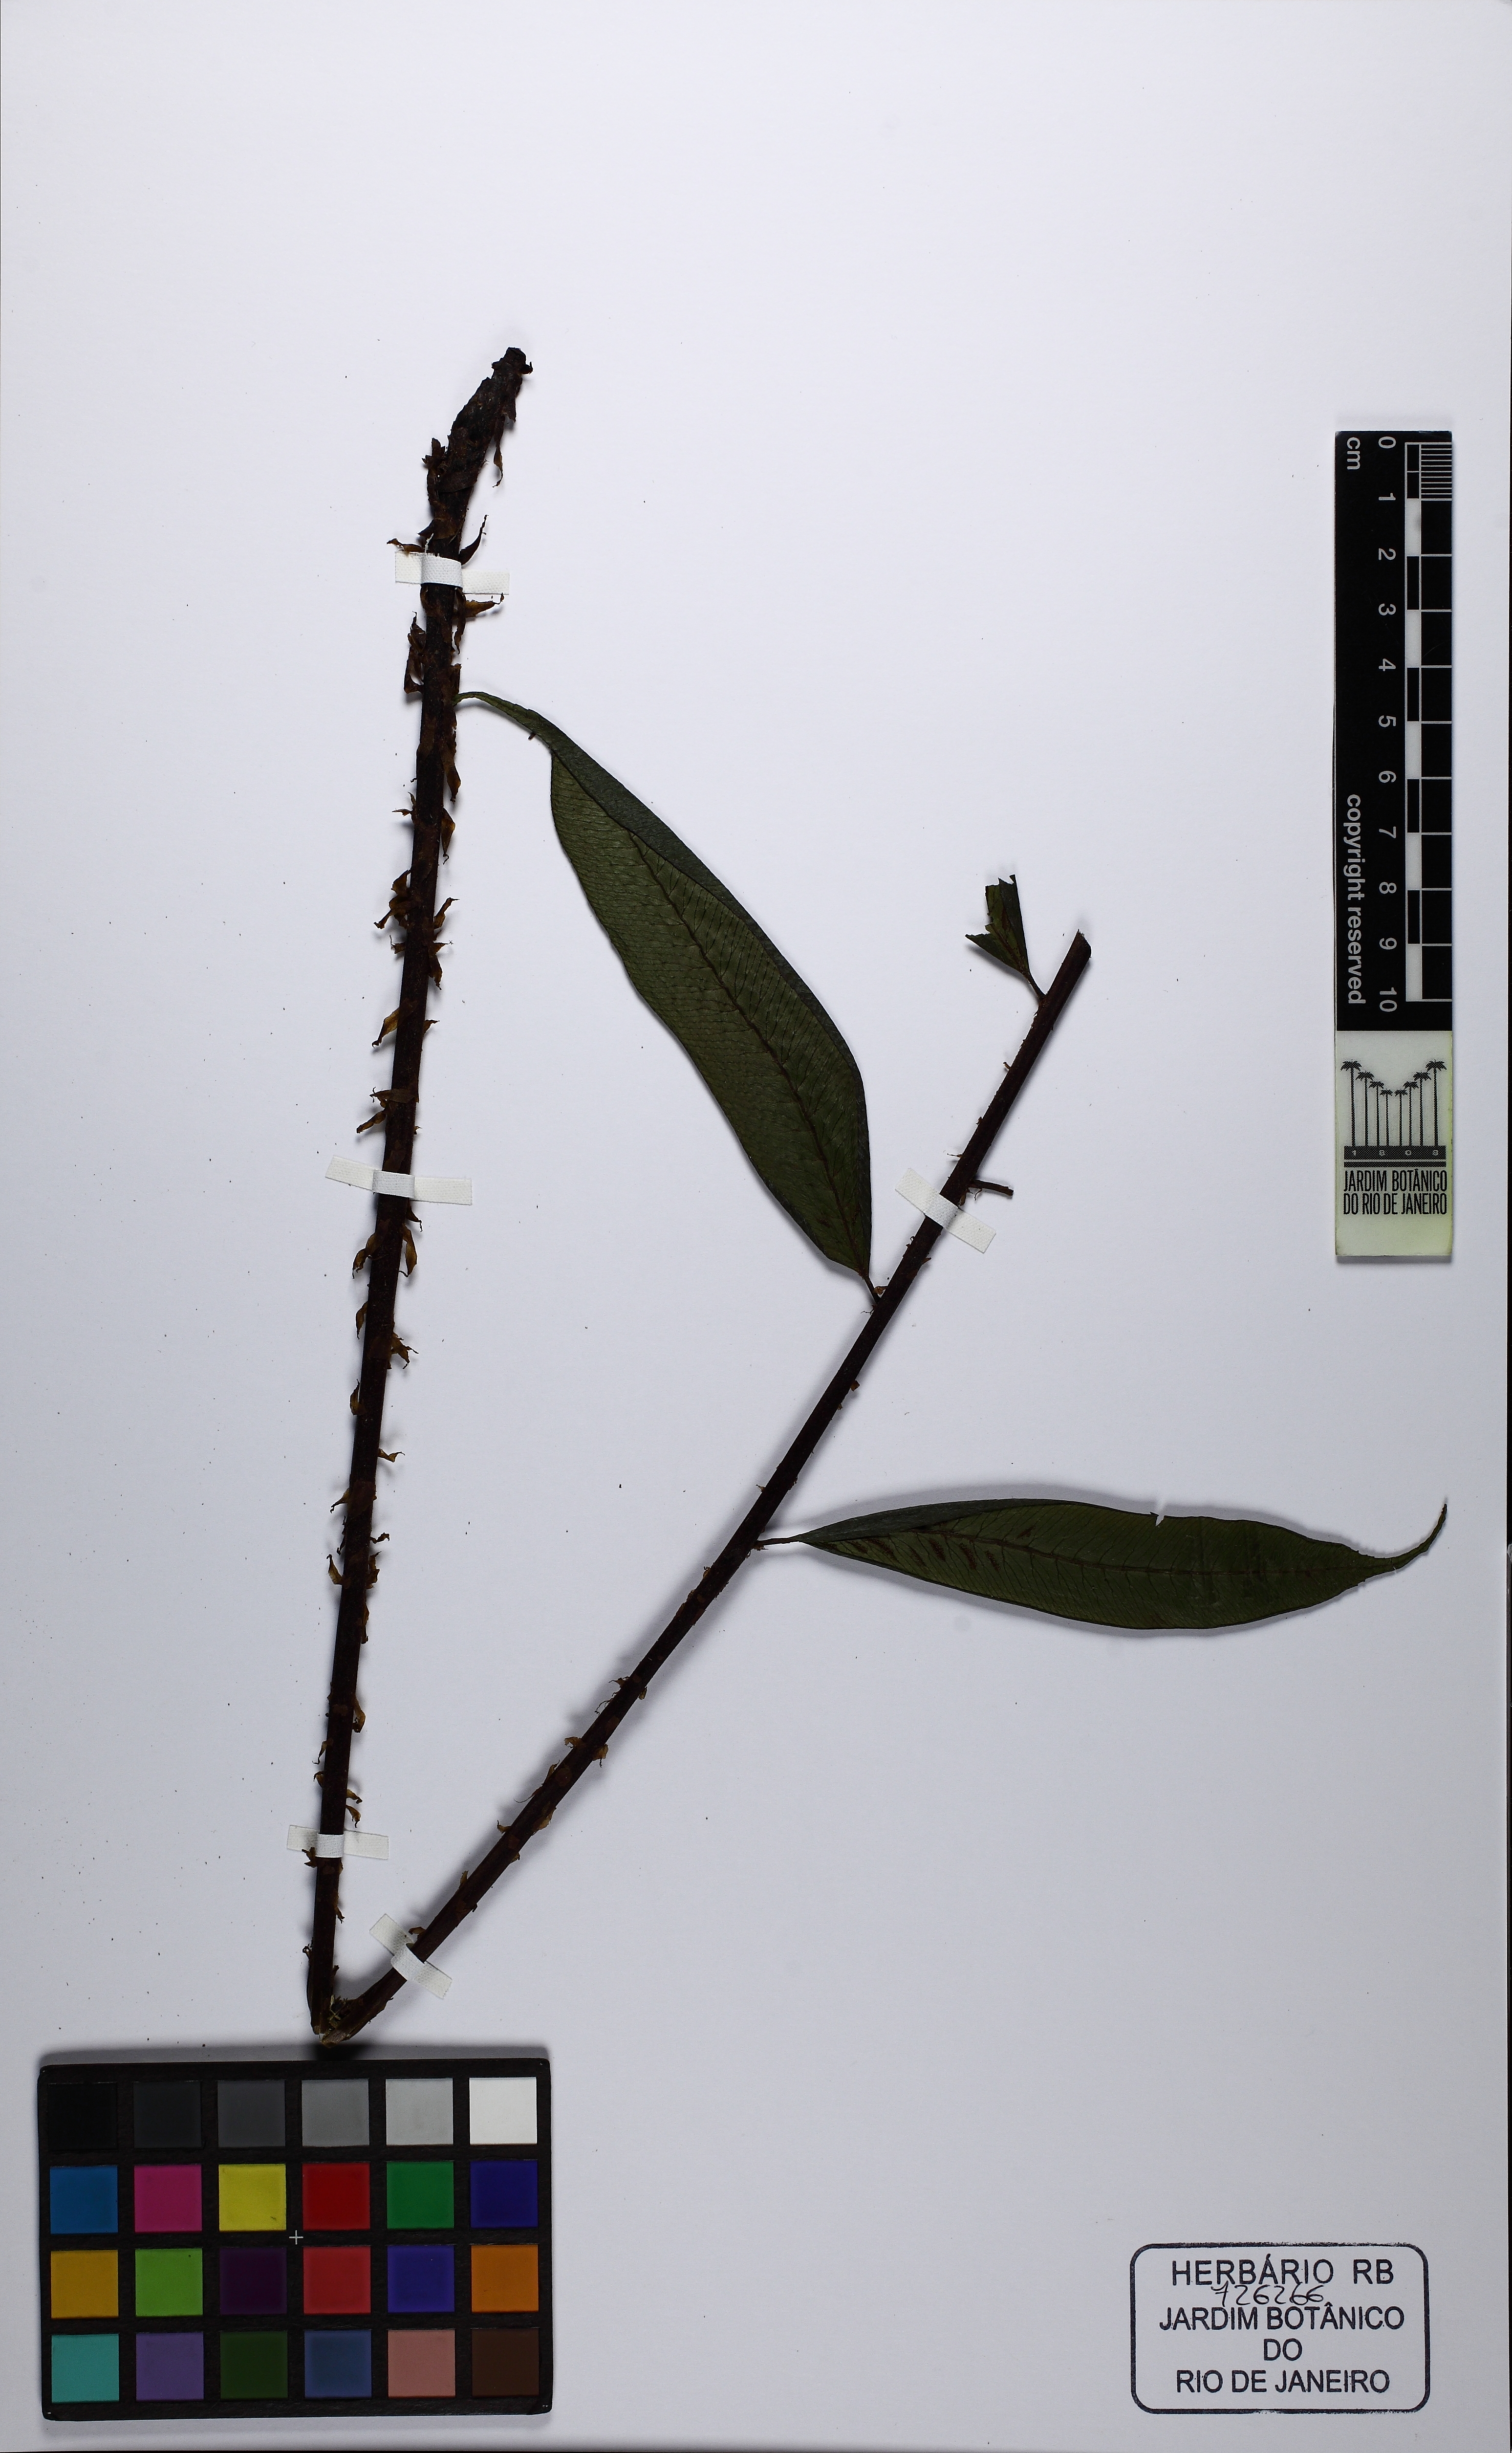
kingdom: Plantae
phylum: Tracheophyta
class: Polypodiopsida
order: Polypodiales
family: Athyriaceae
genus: Diplazium
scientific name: Diplazium obscurum
